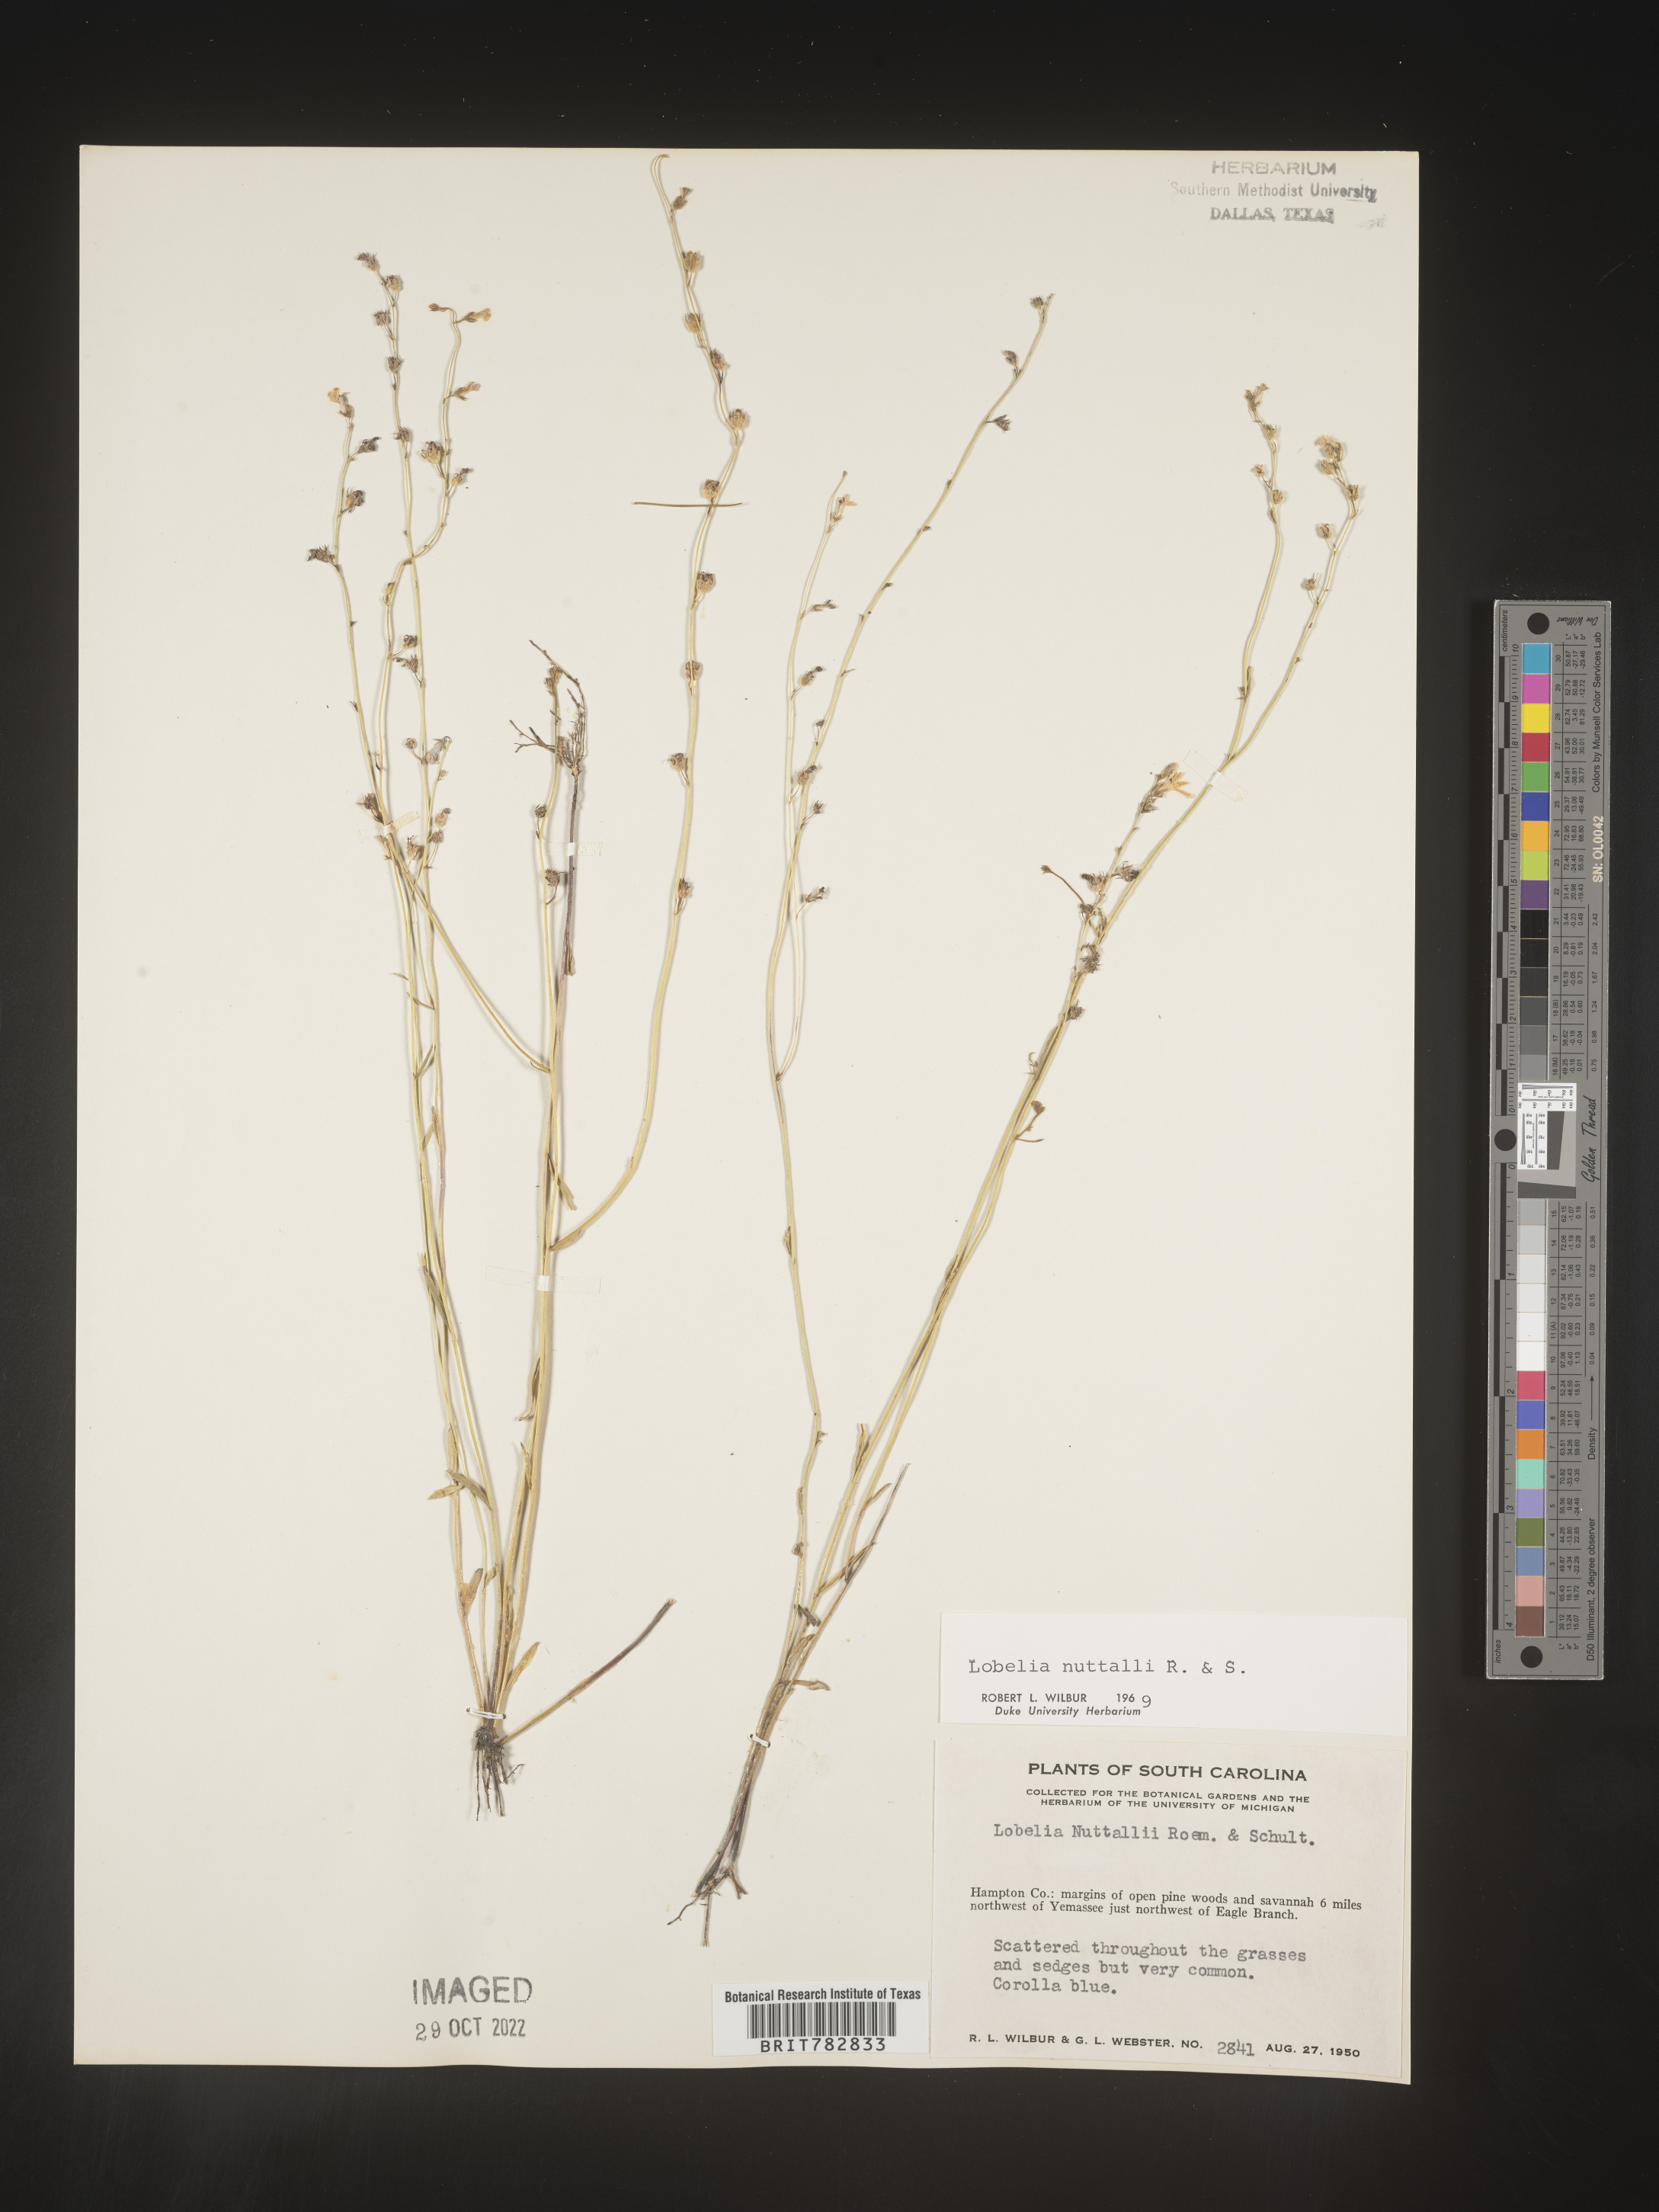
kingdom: Plantae
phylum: Tracheophyta
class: Magnoliopsida
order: Asterales
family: Campanulaceae
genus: Lobelia
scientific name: Lobelia nuttallii
